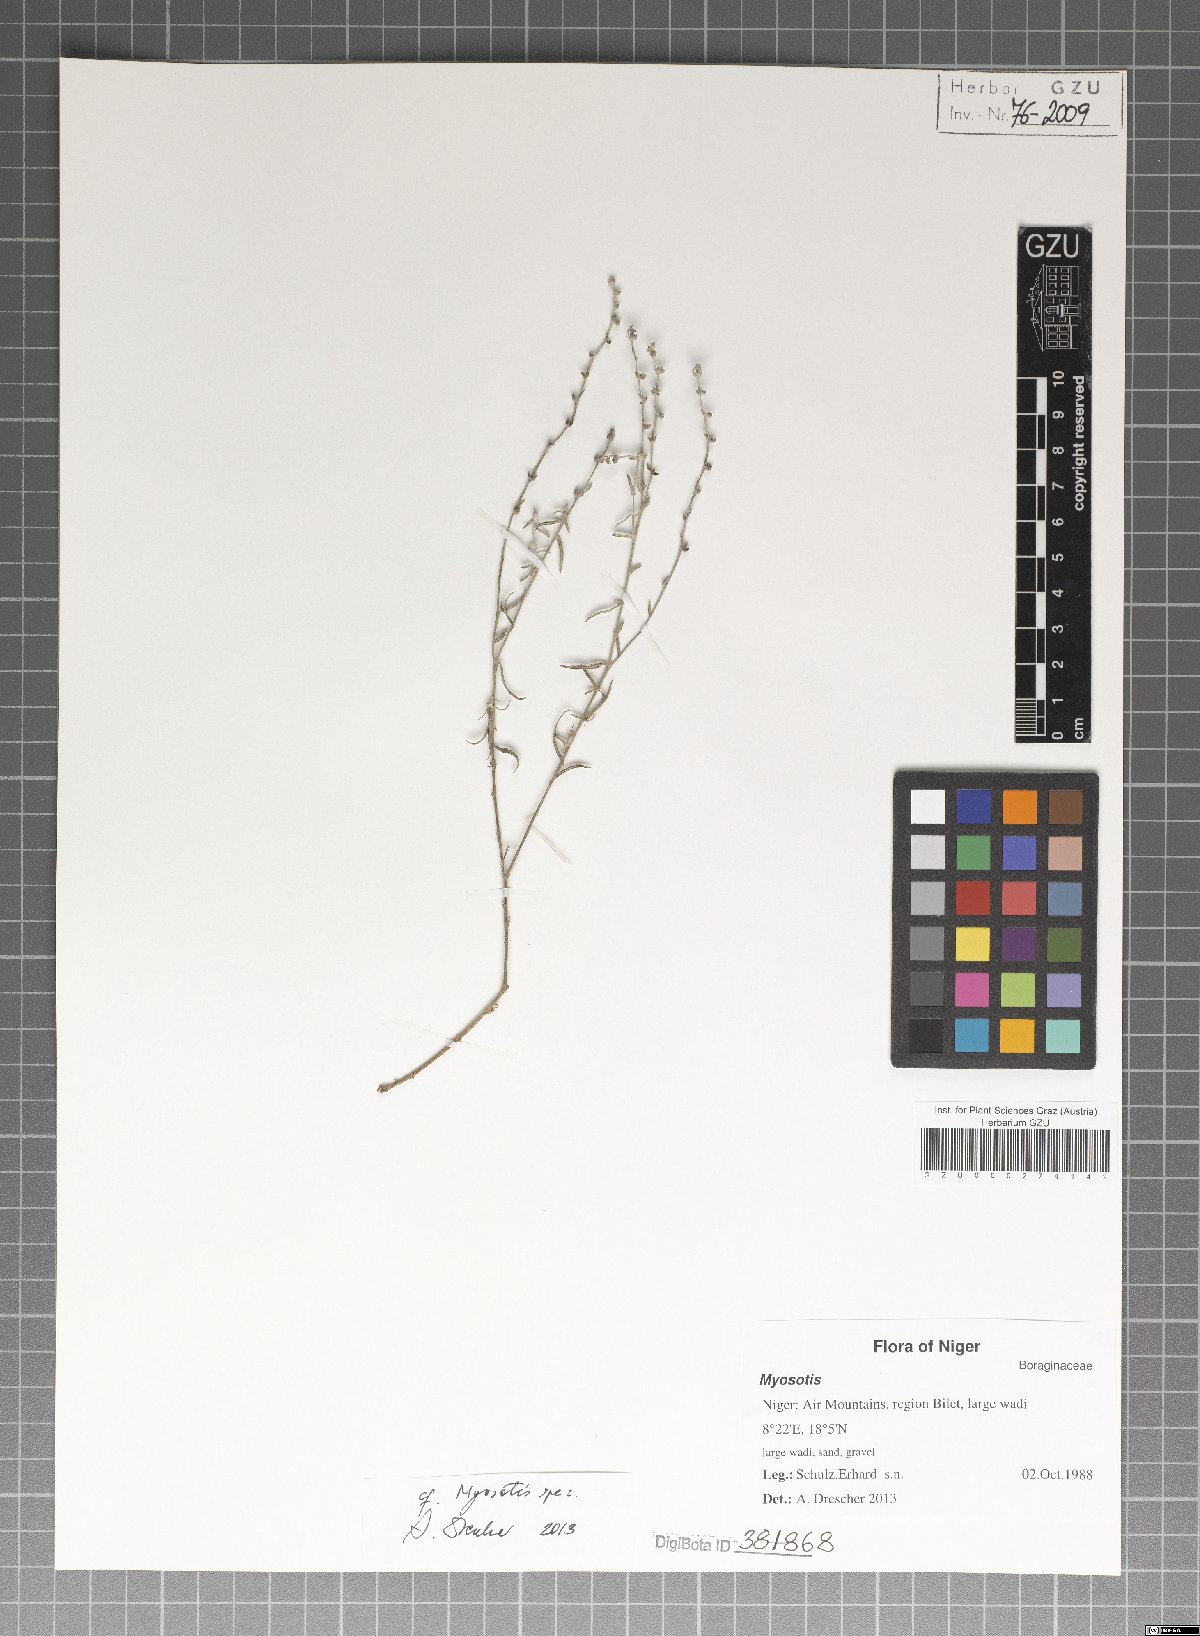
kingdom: Plantae
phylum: Tracheophyta
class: Magnoliopsida
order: Boraginales
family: Boraginaceae
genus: Myosotis
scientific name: Myosotis
